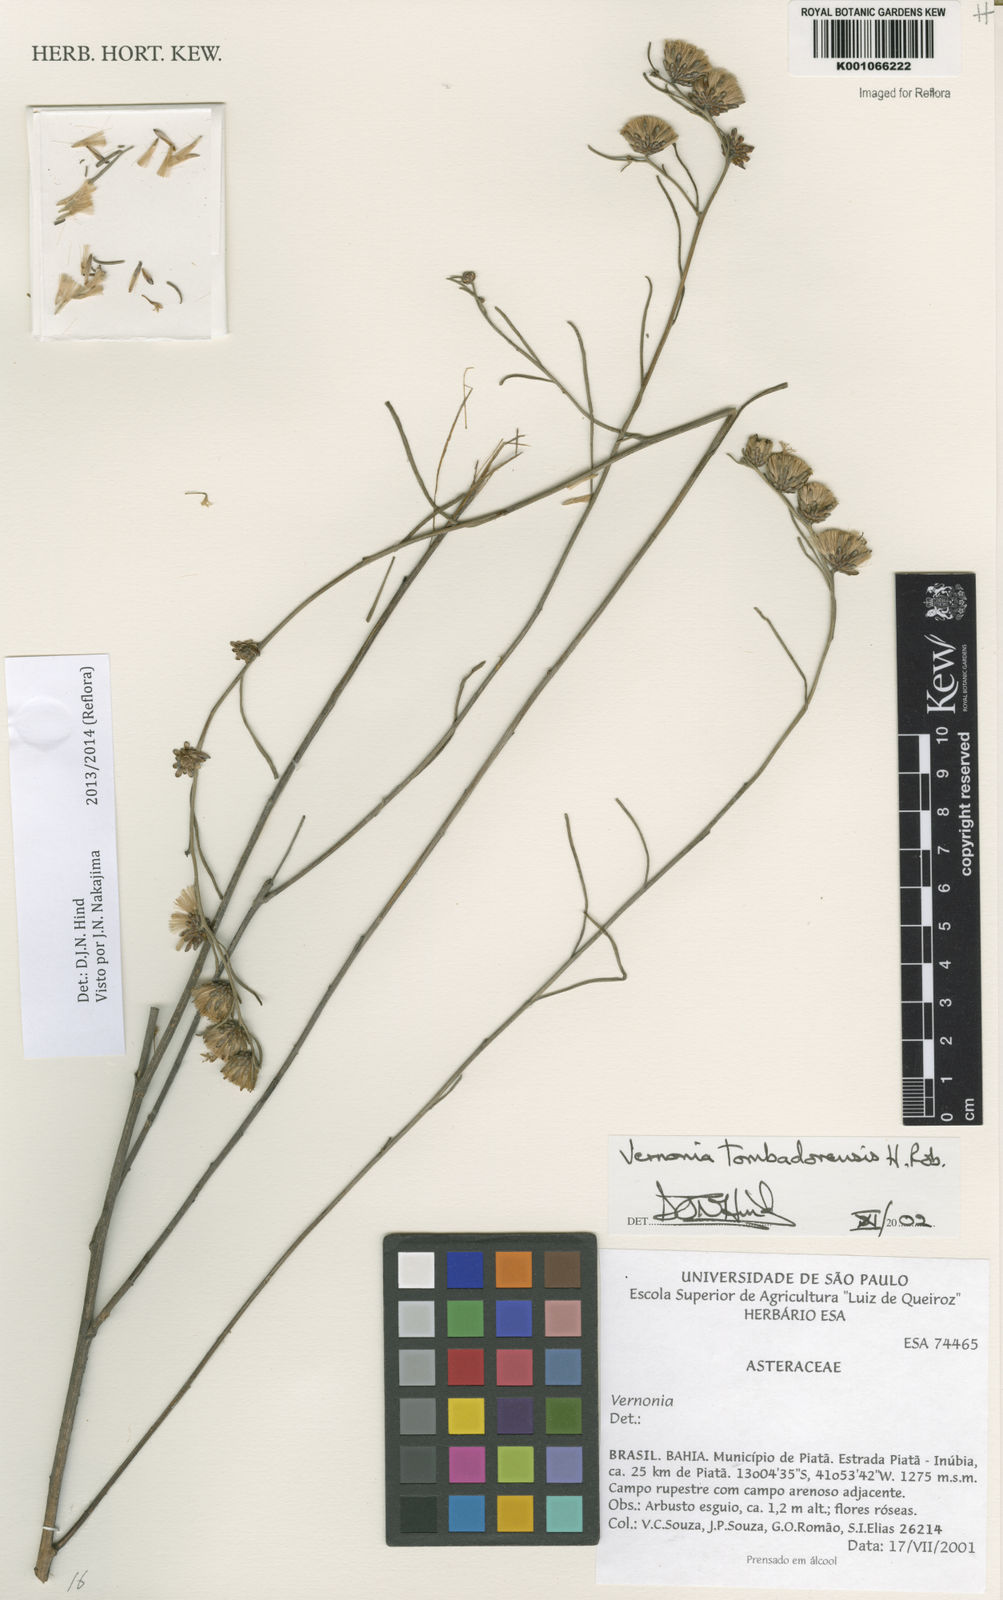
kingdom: Plantae
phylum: Tracheophyta
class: Magnoliopsida
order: Asterales
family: Asteraceae
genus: Lepidaploa
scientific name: Lepidaploa tombadorensis
